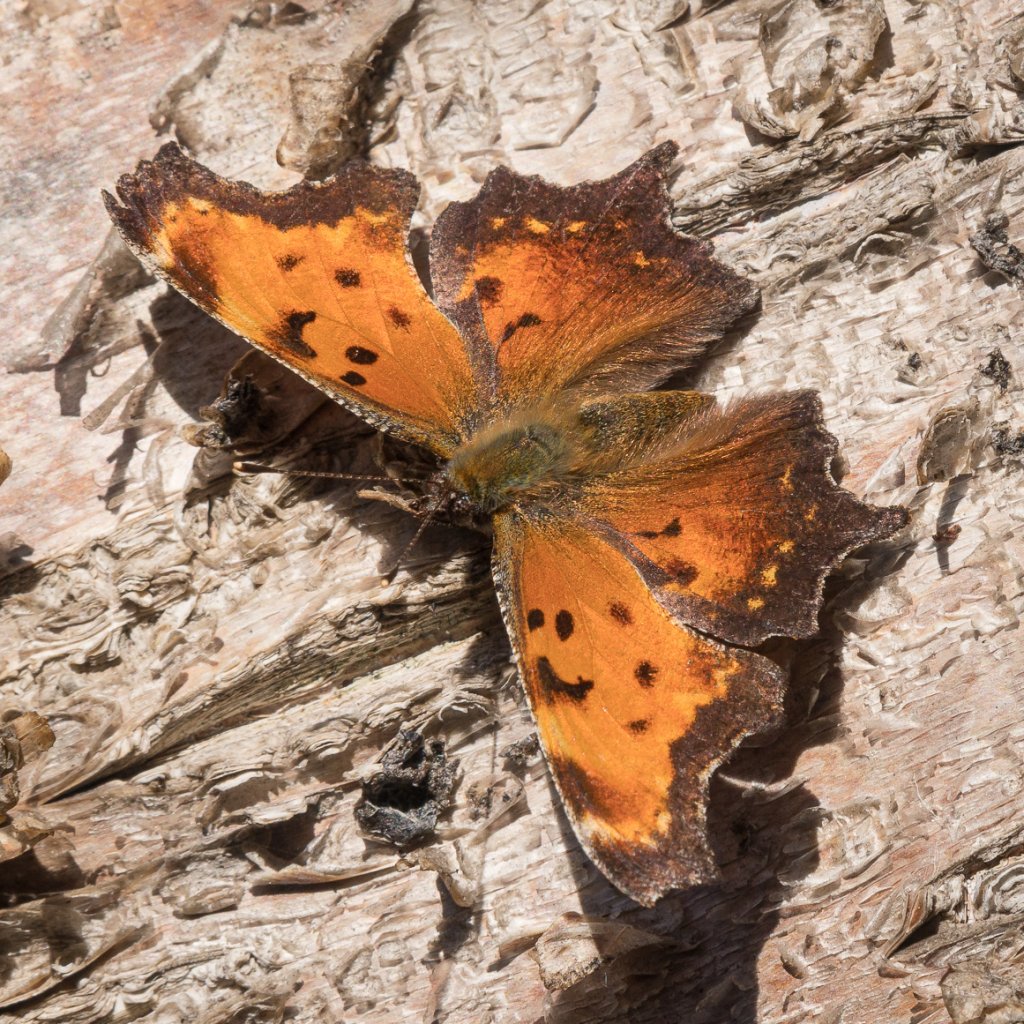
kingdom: Animalia
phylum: Arthropoda
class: Insecta
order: Lepidoptera
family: Nymphalidae
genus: Polygonia
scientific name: Polygonia progne
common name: Gray Comma
